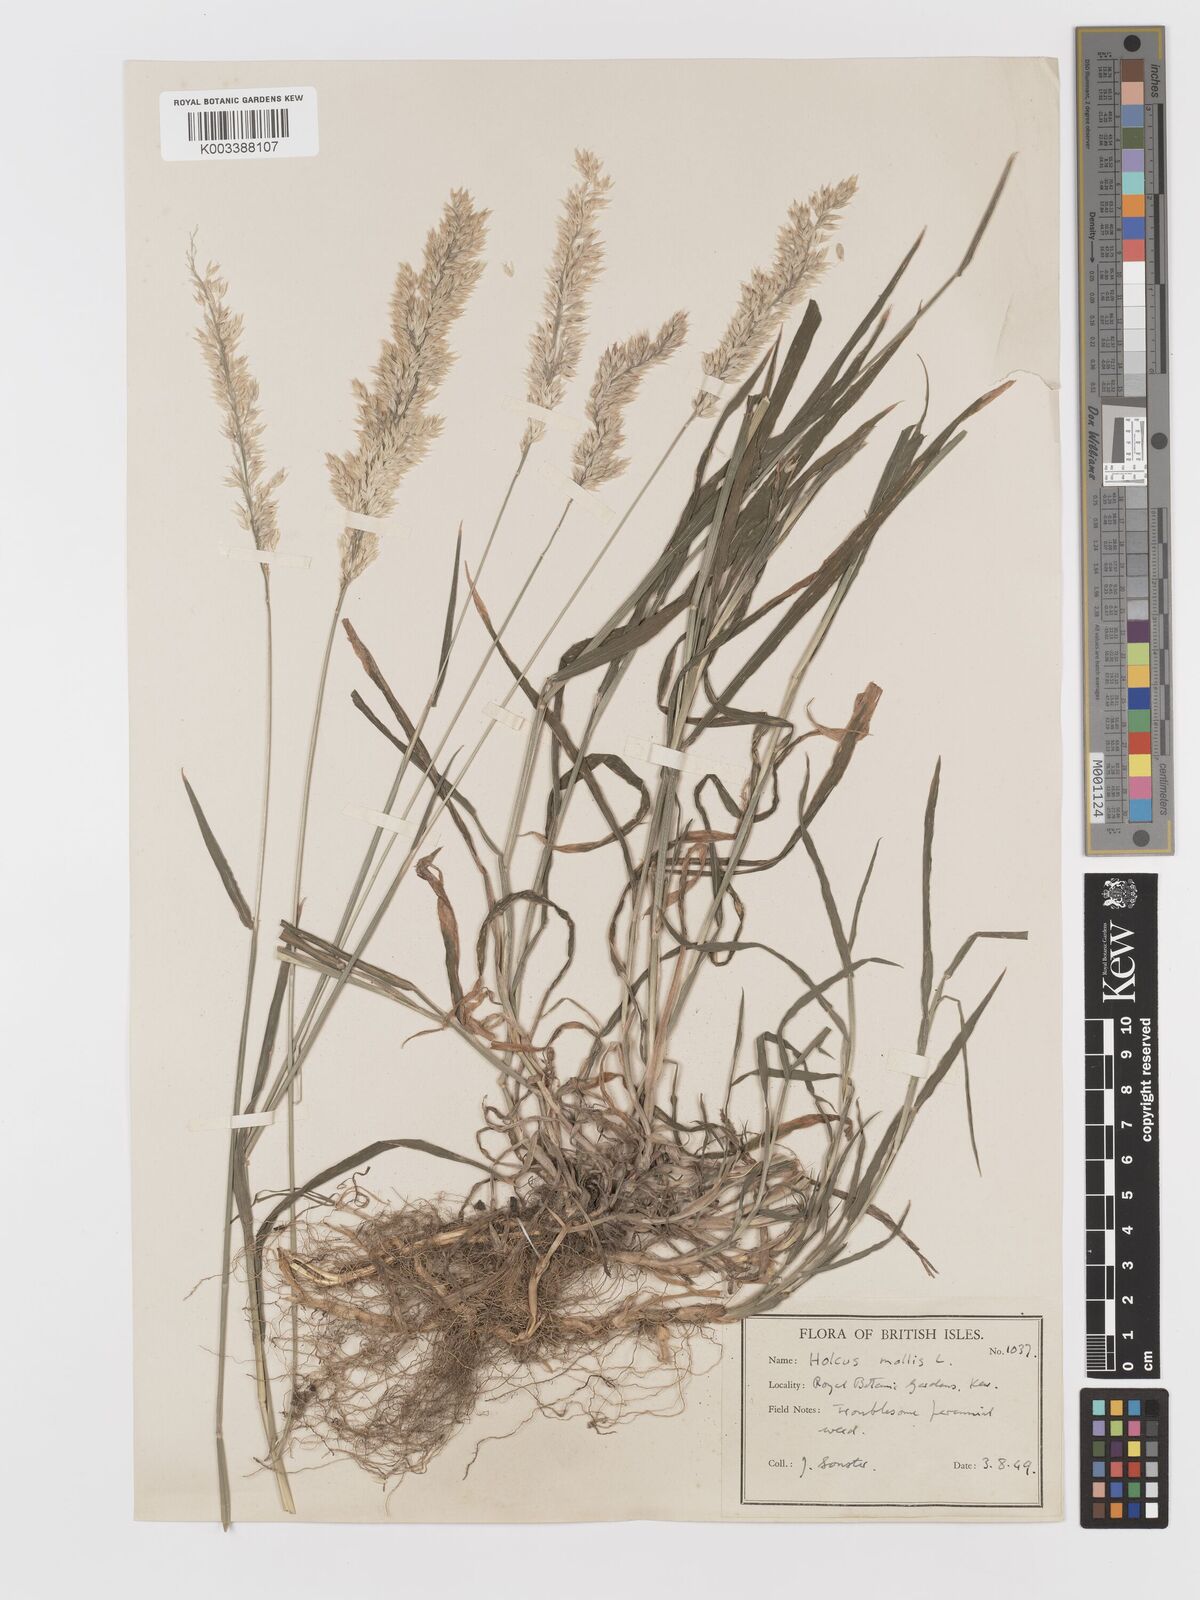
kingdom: Plantae
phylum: Tracheophyta
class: Liliopsida
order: Poales
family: Poaceae
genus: Holcus
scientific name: Holcus mollis
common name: Creeping velvetgrass
